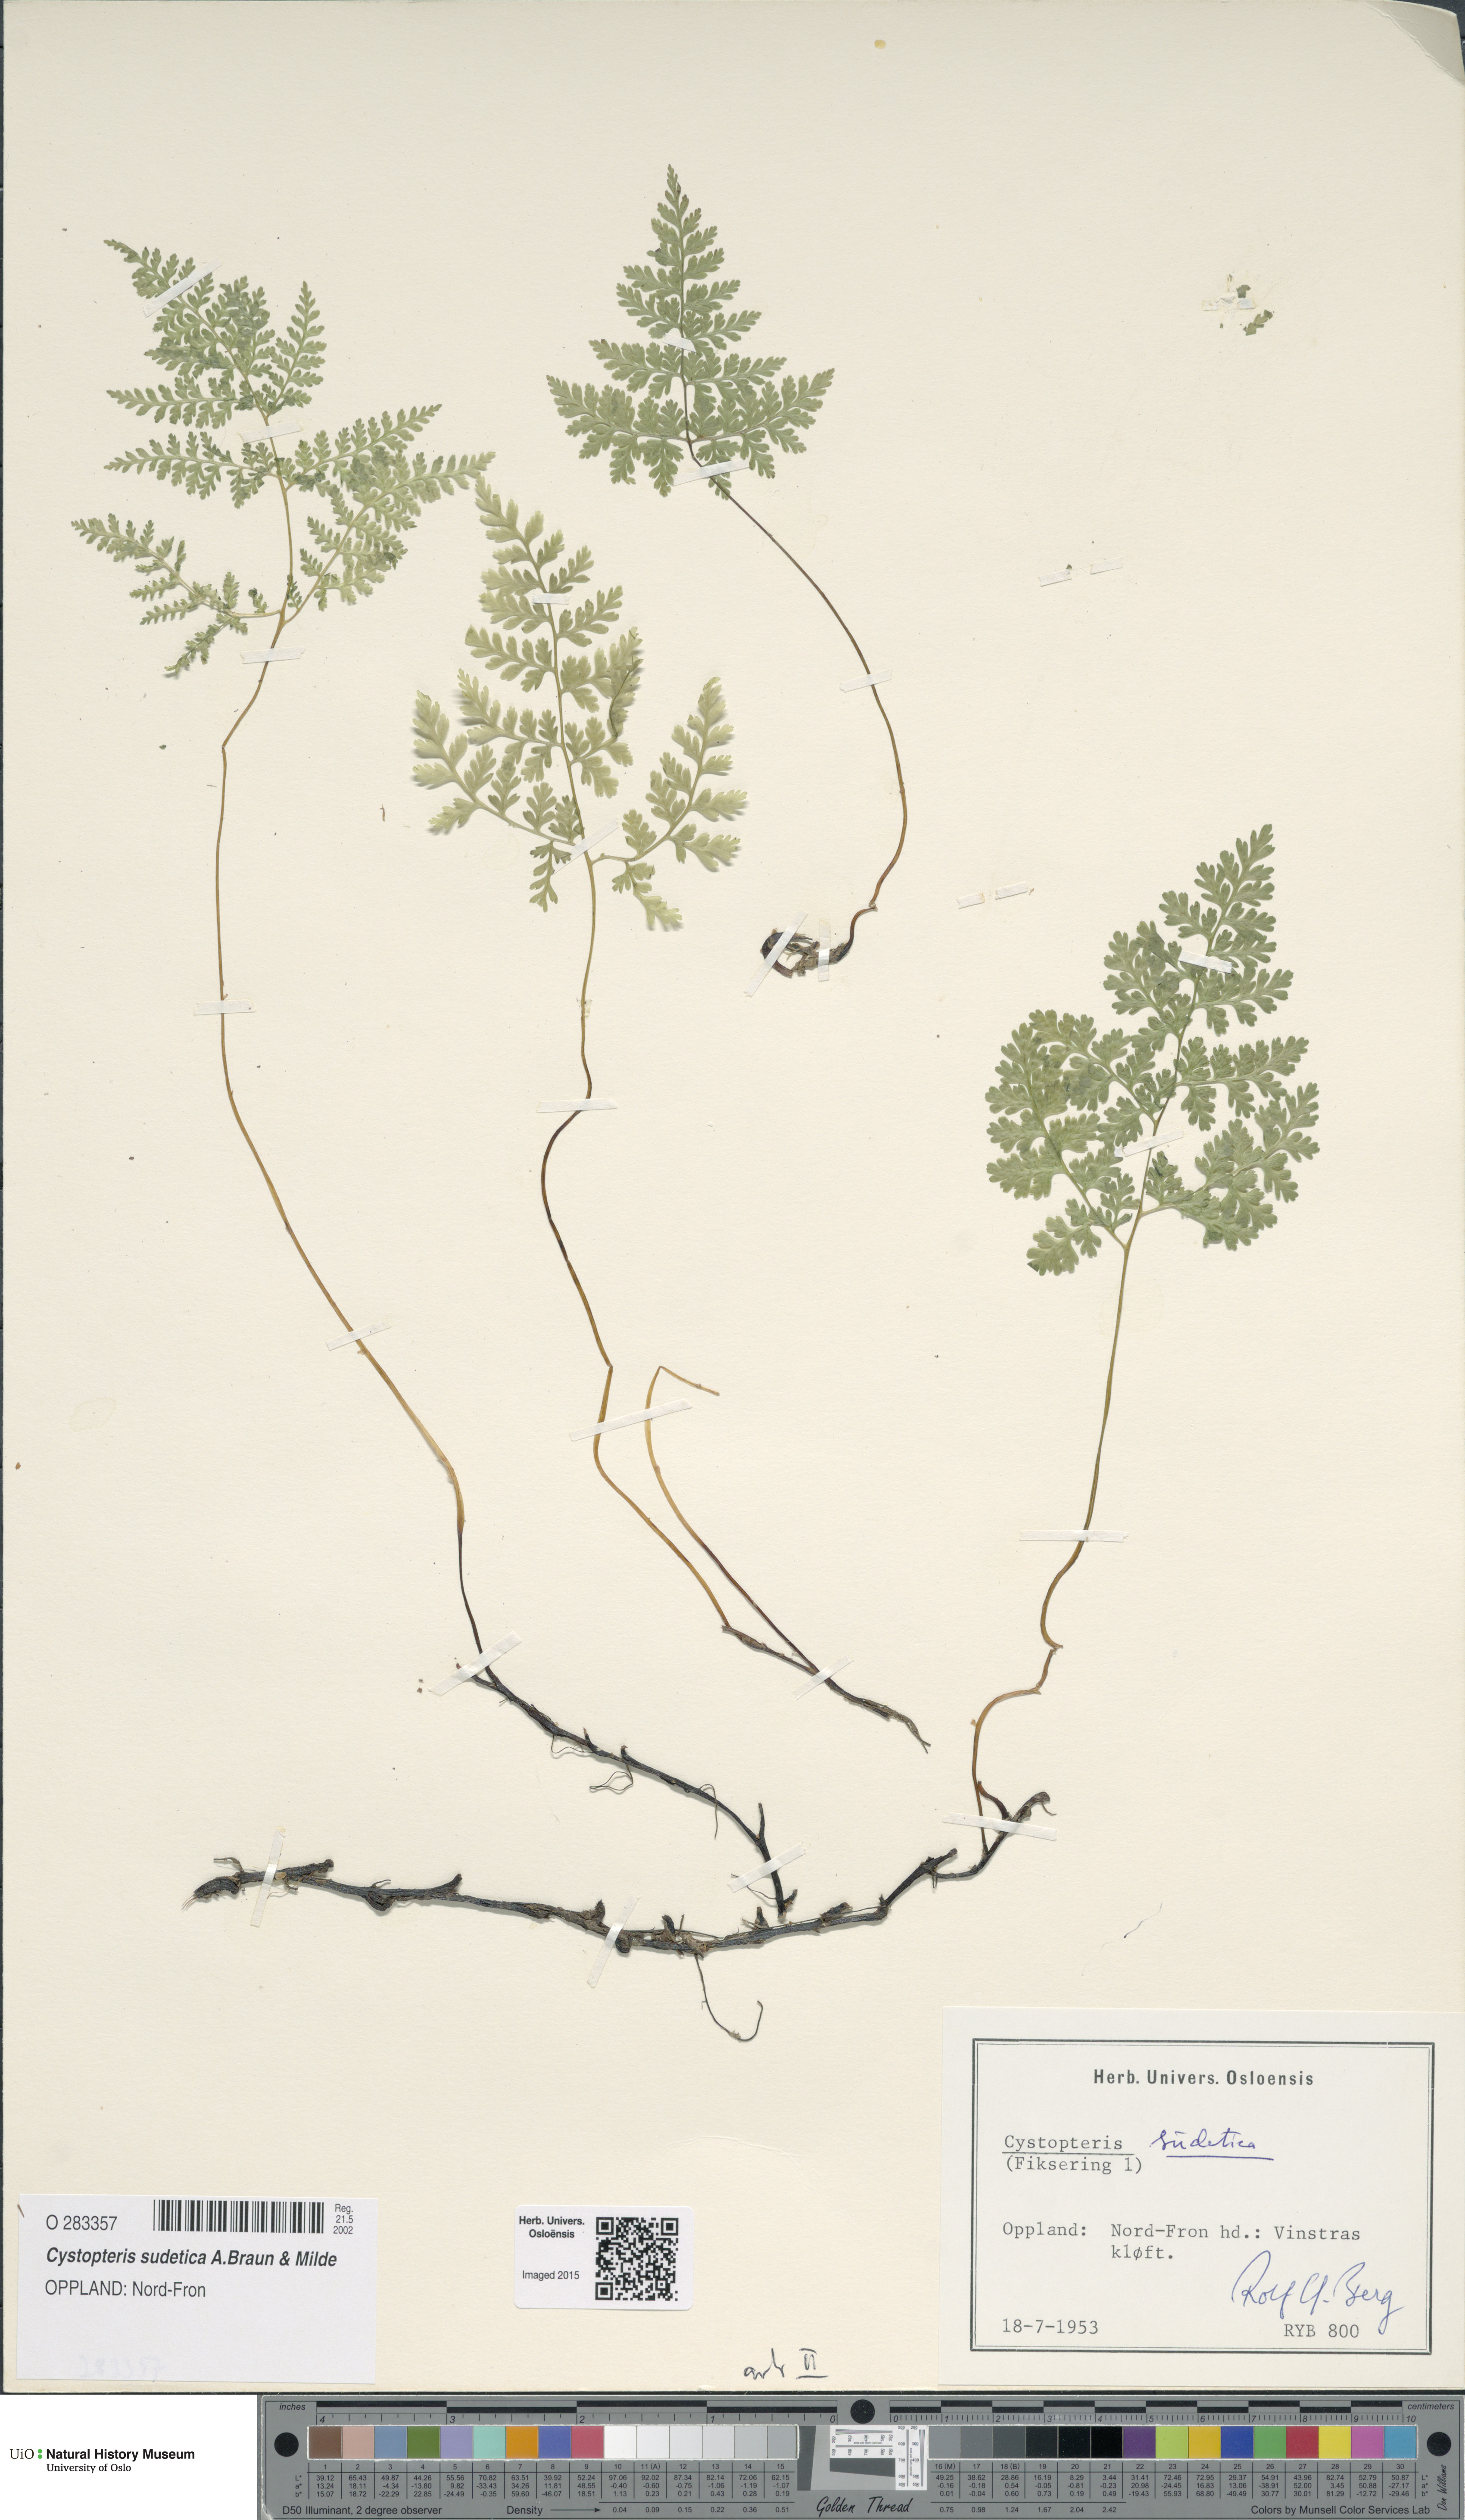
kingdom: Plantae
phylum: Tracheophyta
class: Polypodiopsida
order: Polypodiales
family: Cystopteridaceae
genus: Cystopteris
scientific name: Cystopteris sudetica
